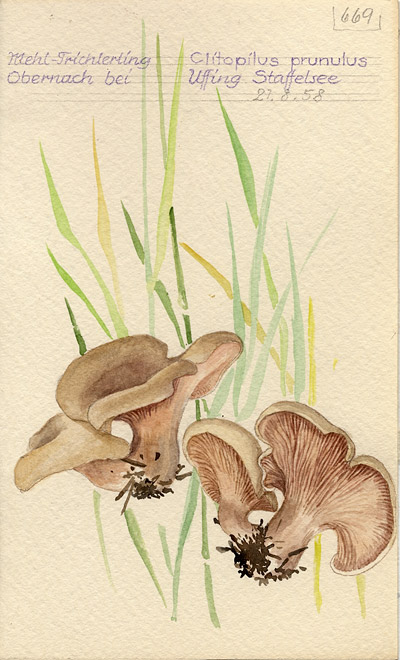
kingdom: Fungi
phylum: Basidiomycota
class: Agaricomycetes
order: Agaricales
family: Entolomataceae
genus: Clitopilus
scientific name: Clitopilus prunulus
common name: The miller
